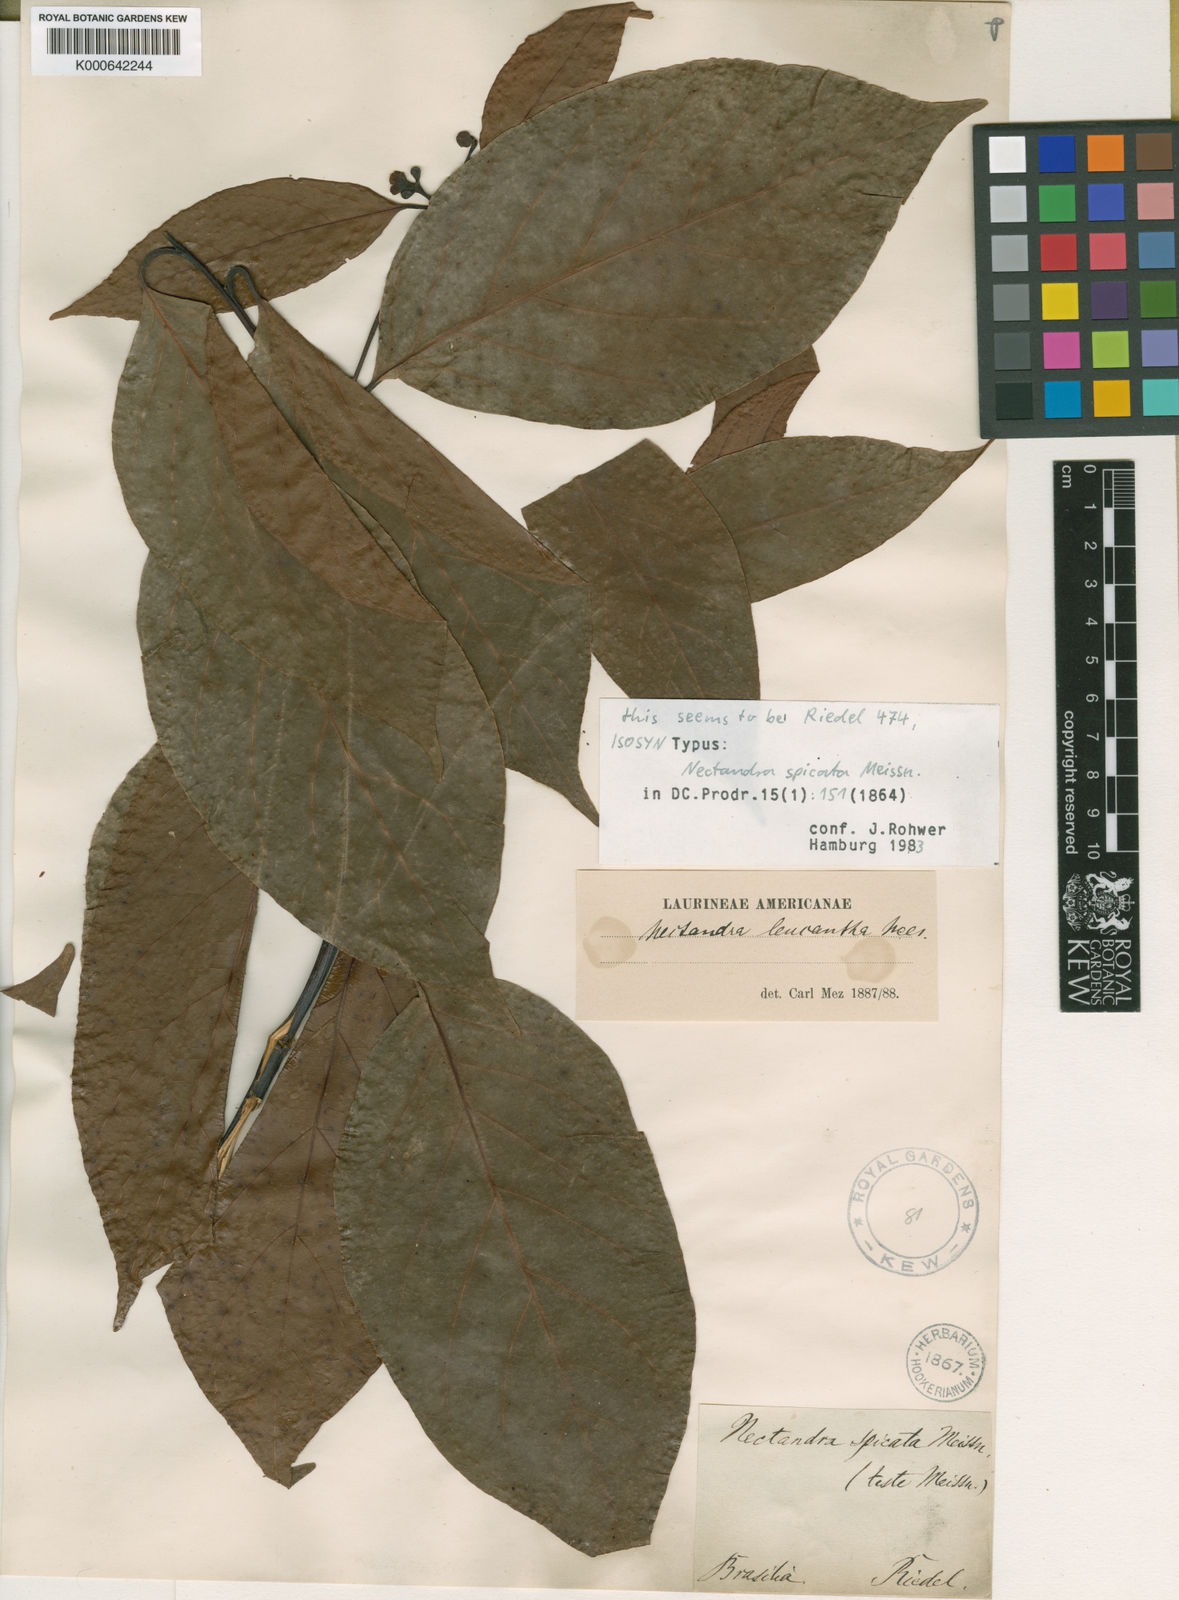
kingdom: Plantae
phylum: Tracheophyta
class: Magnoliopsida
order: Laurales
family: Lauraceae
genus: Nectandra
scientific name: Nectandra leucantha
